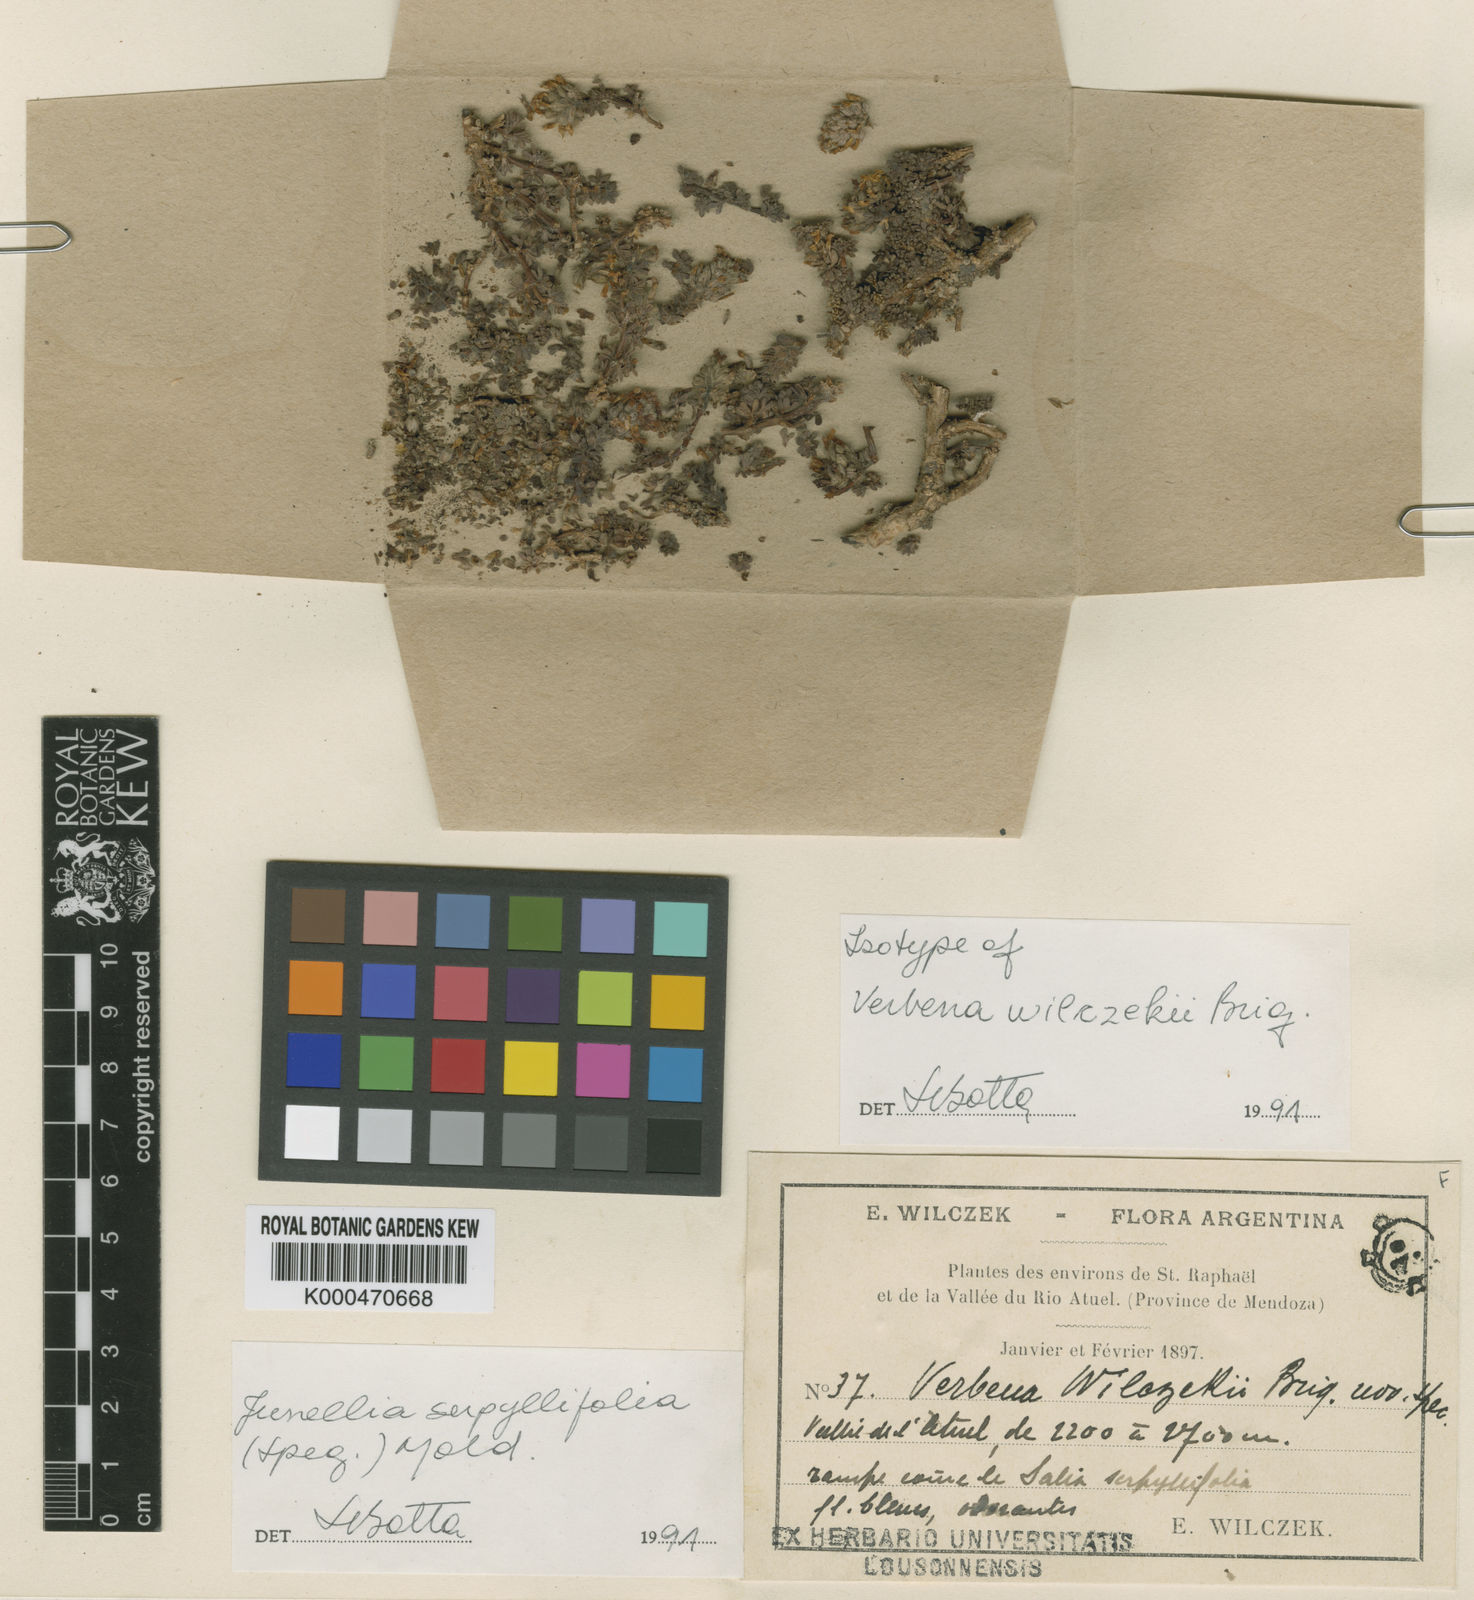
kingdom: Plantae
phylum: Tracheophyta
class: Magnoliopsida
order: Lamiales
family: Verbenaceae
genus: Junellia
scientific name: Junellia micrantha
